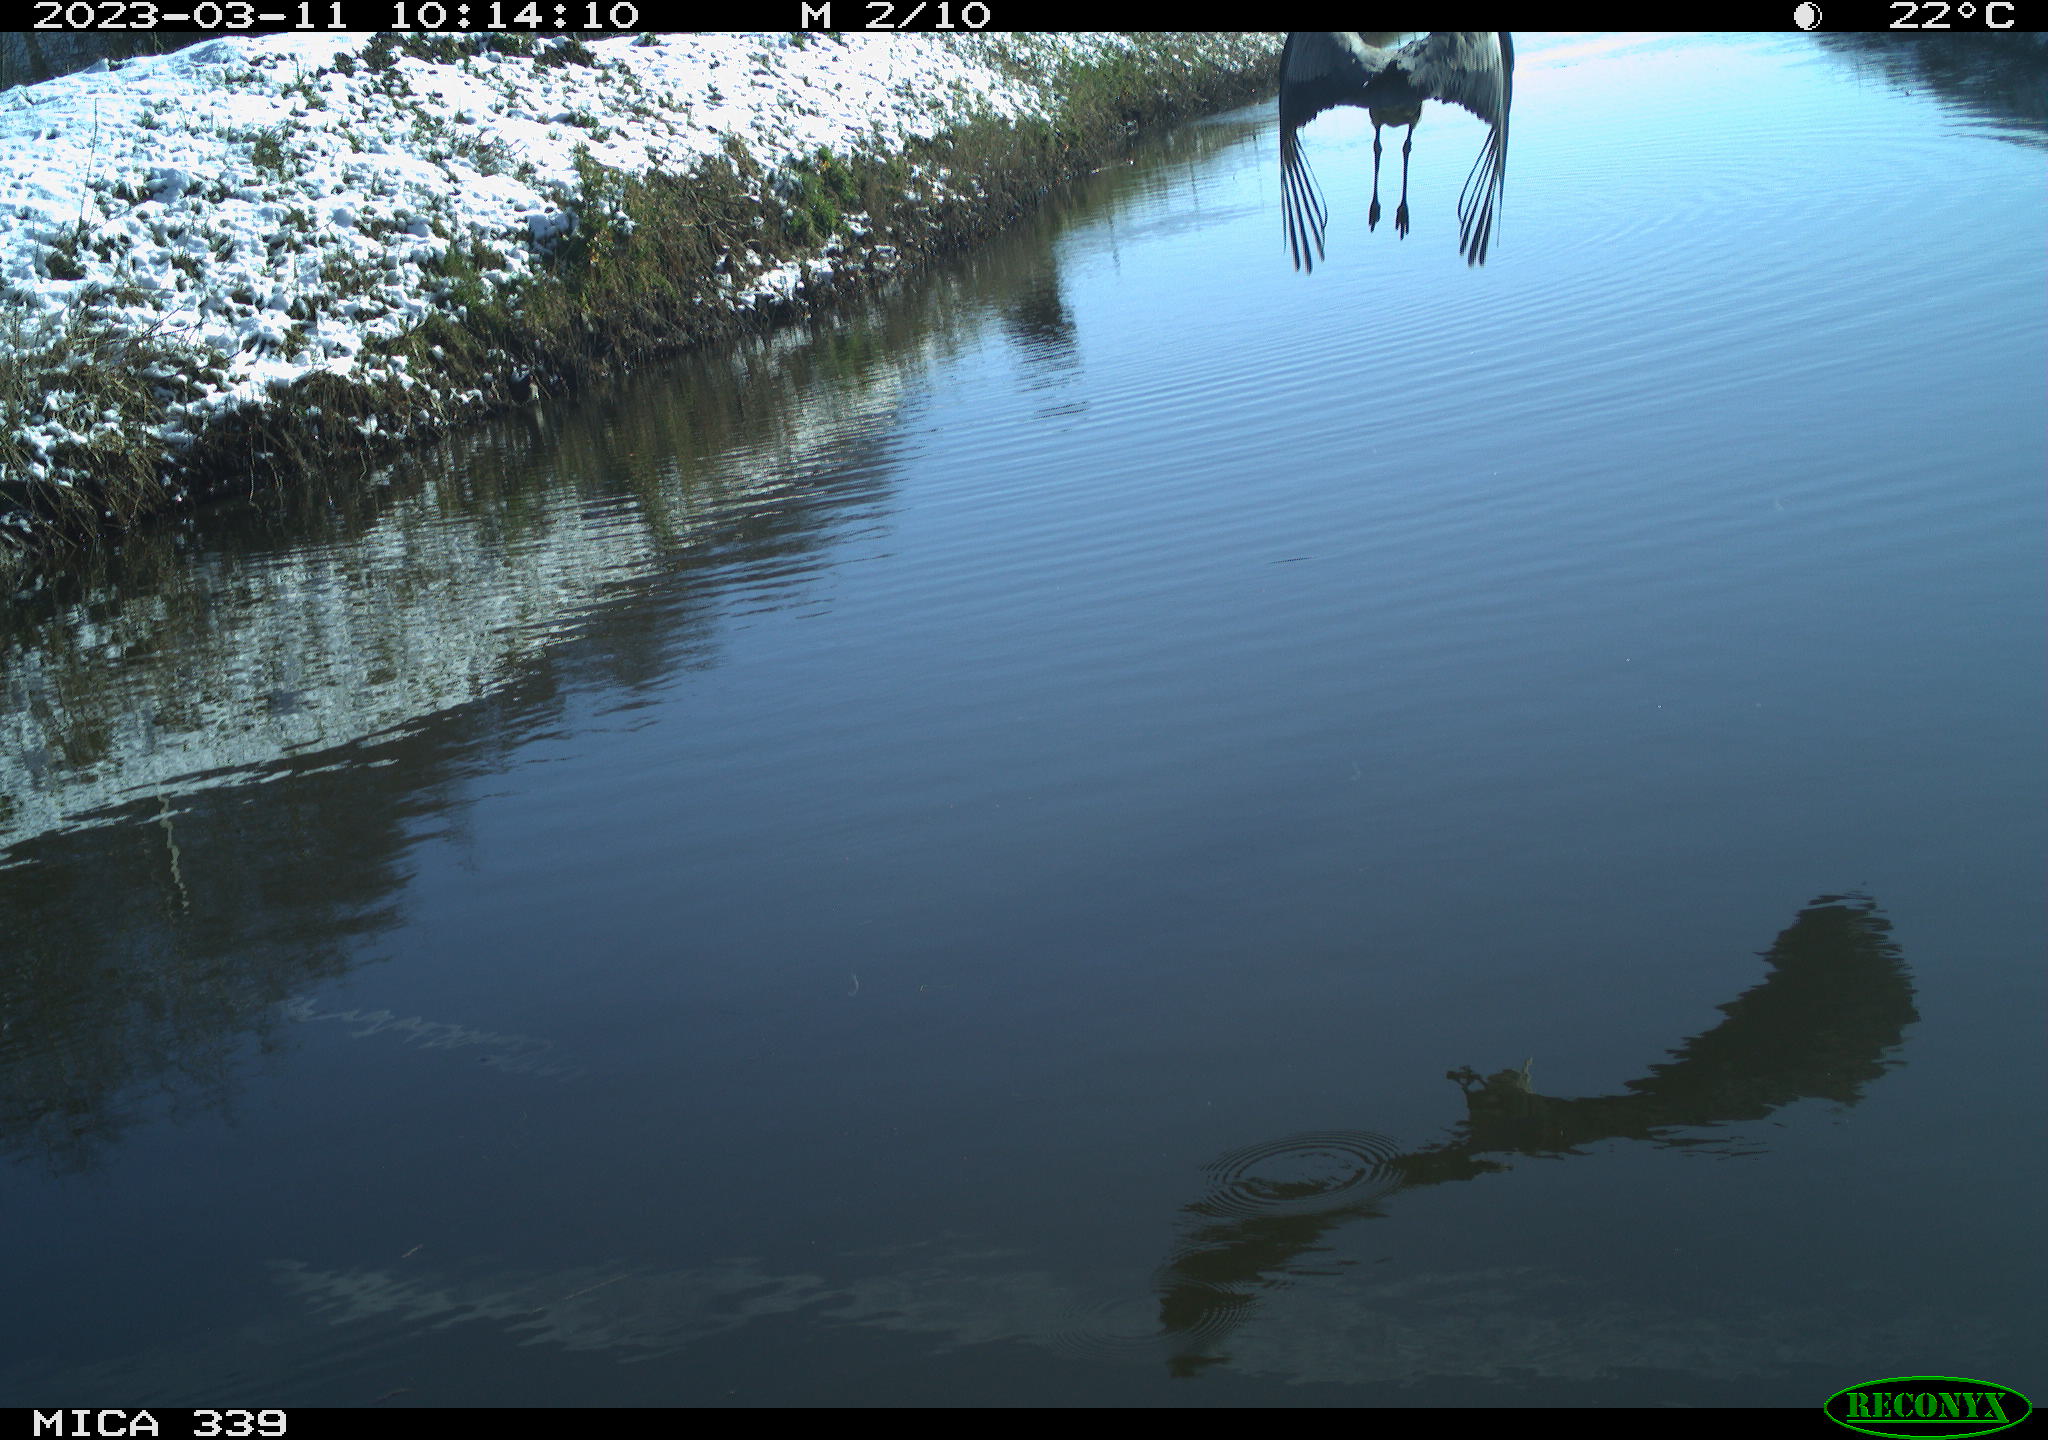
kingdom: Animalia
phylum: Chordata
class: Aves
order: Pelecaniformes
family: Ardeidae
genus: Ardea
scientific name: Ardea cinerea
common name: Grey heron
